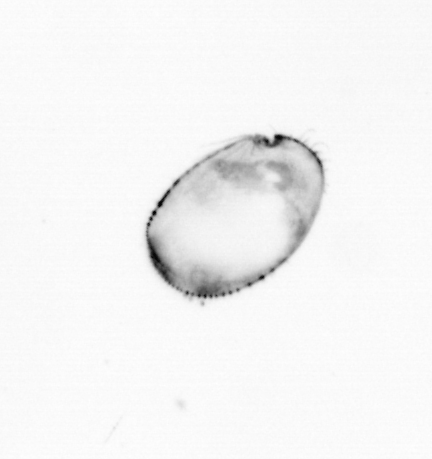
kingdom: Chromista
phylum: Ochrophyta
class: Bacillariophyceae
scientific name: Bacillariophyceae
